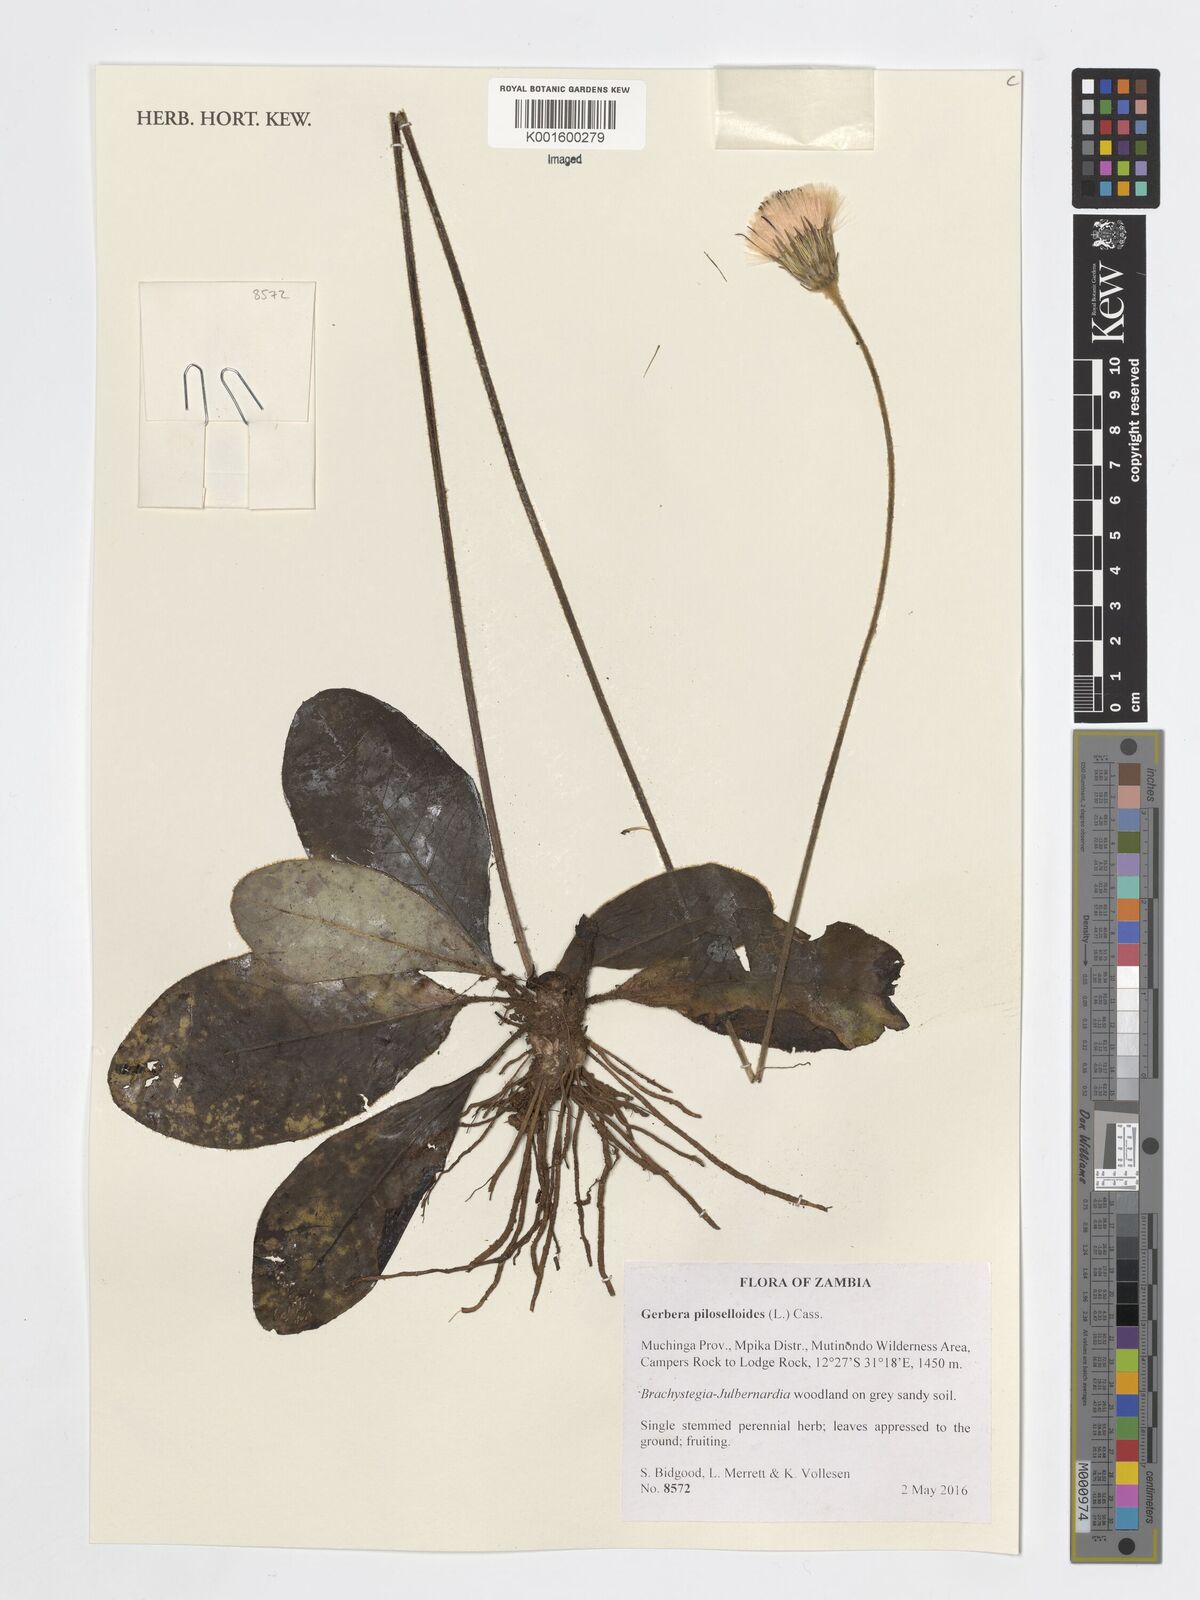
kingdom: Plantae
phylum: Tracheophyta
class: Magnoliopsida
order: Asterales
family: Asteraceae
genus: Piloselloides
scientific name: Piloselloides hirsuta
